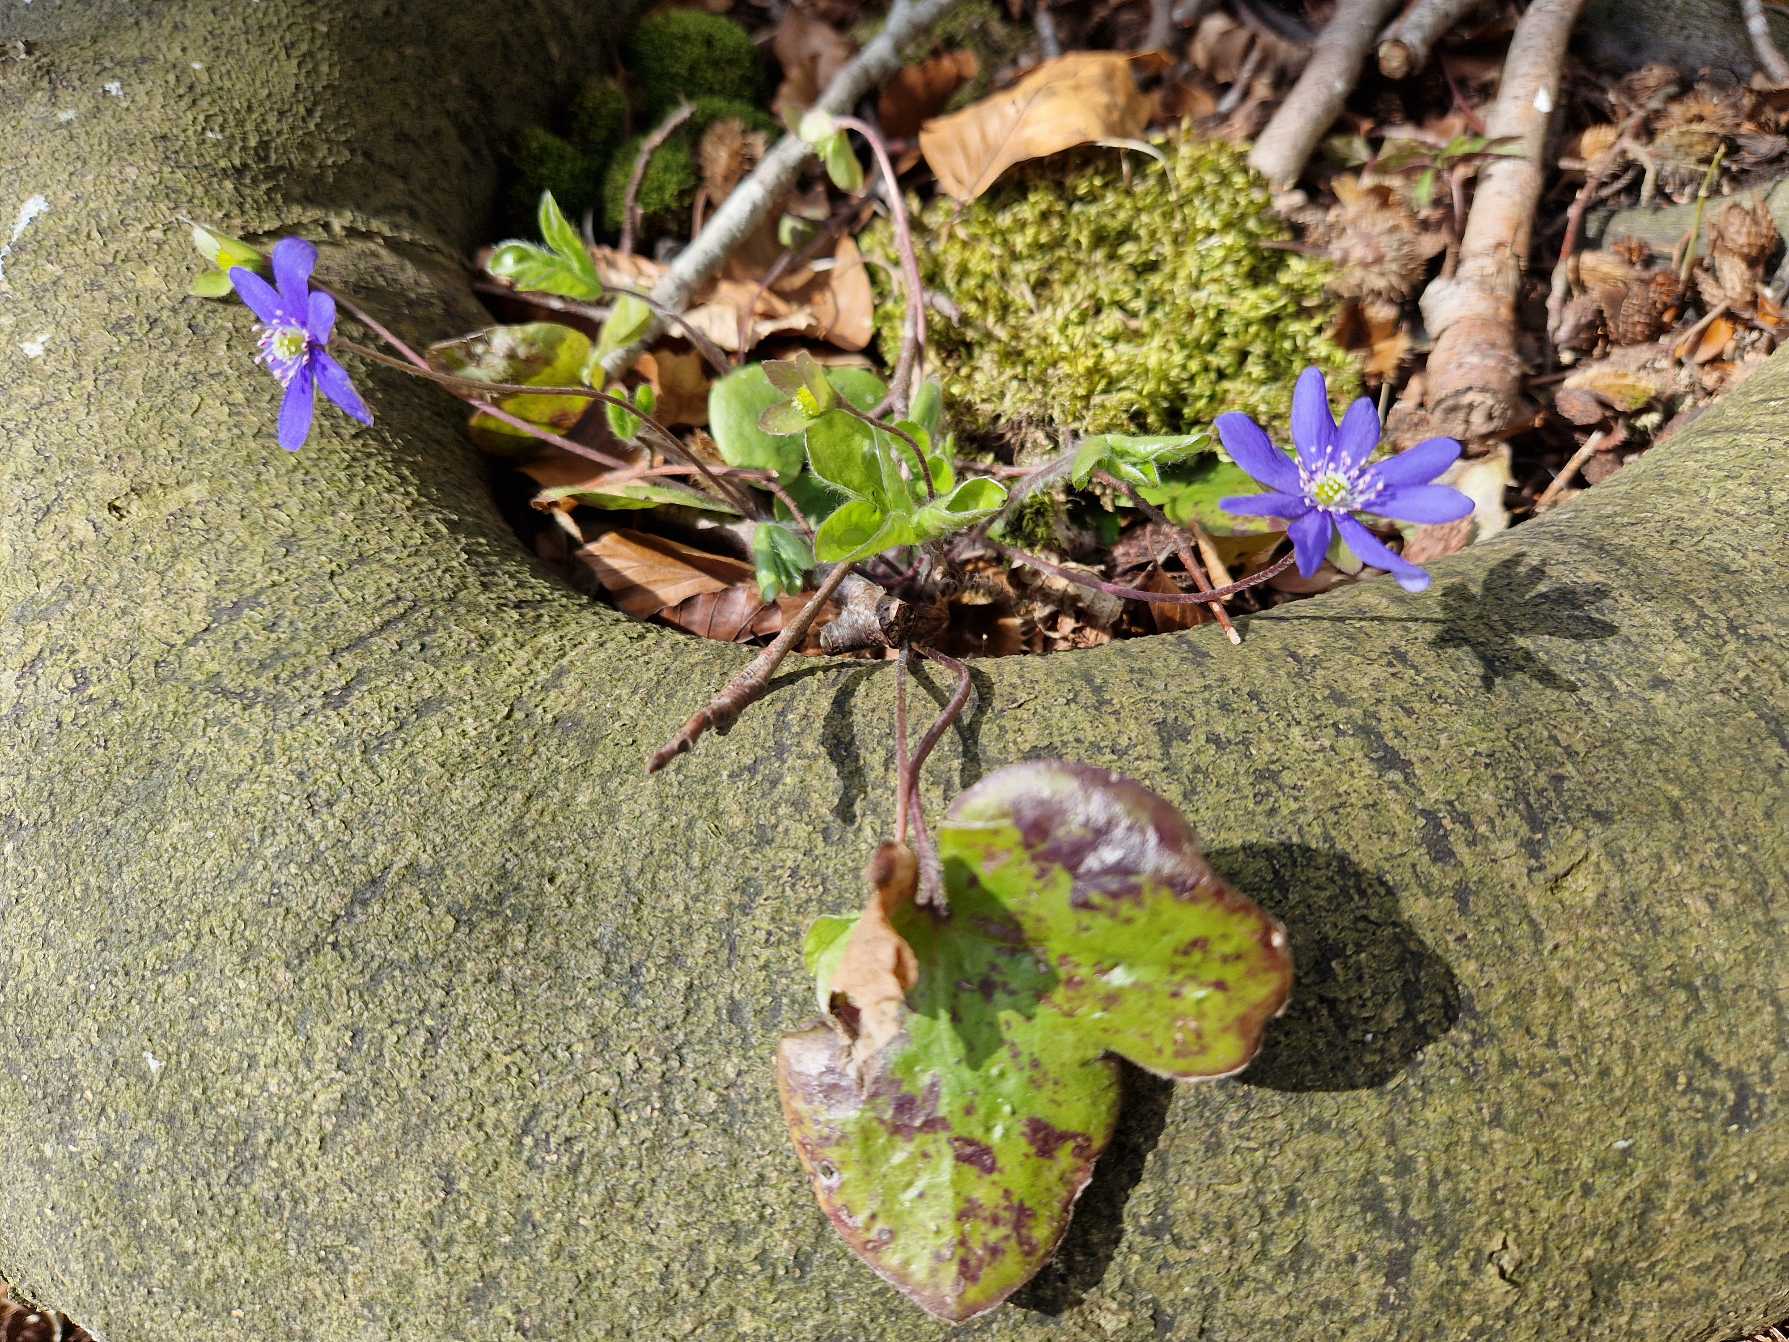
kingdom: Plantae
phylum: Tracheophyta
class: Magnoliopsida
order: Ranunculales
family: Ranunculaceae
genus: Hepatica
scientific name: Hepatica nobilis
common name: Blå anemone
